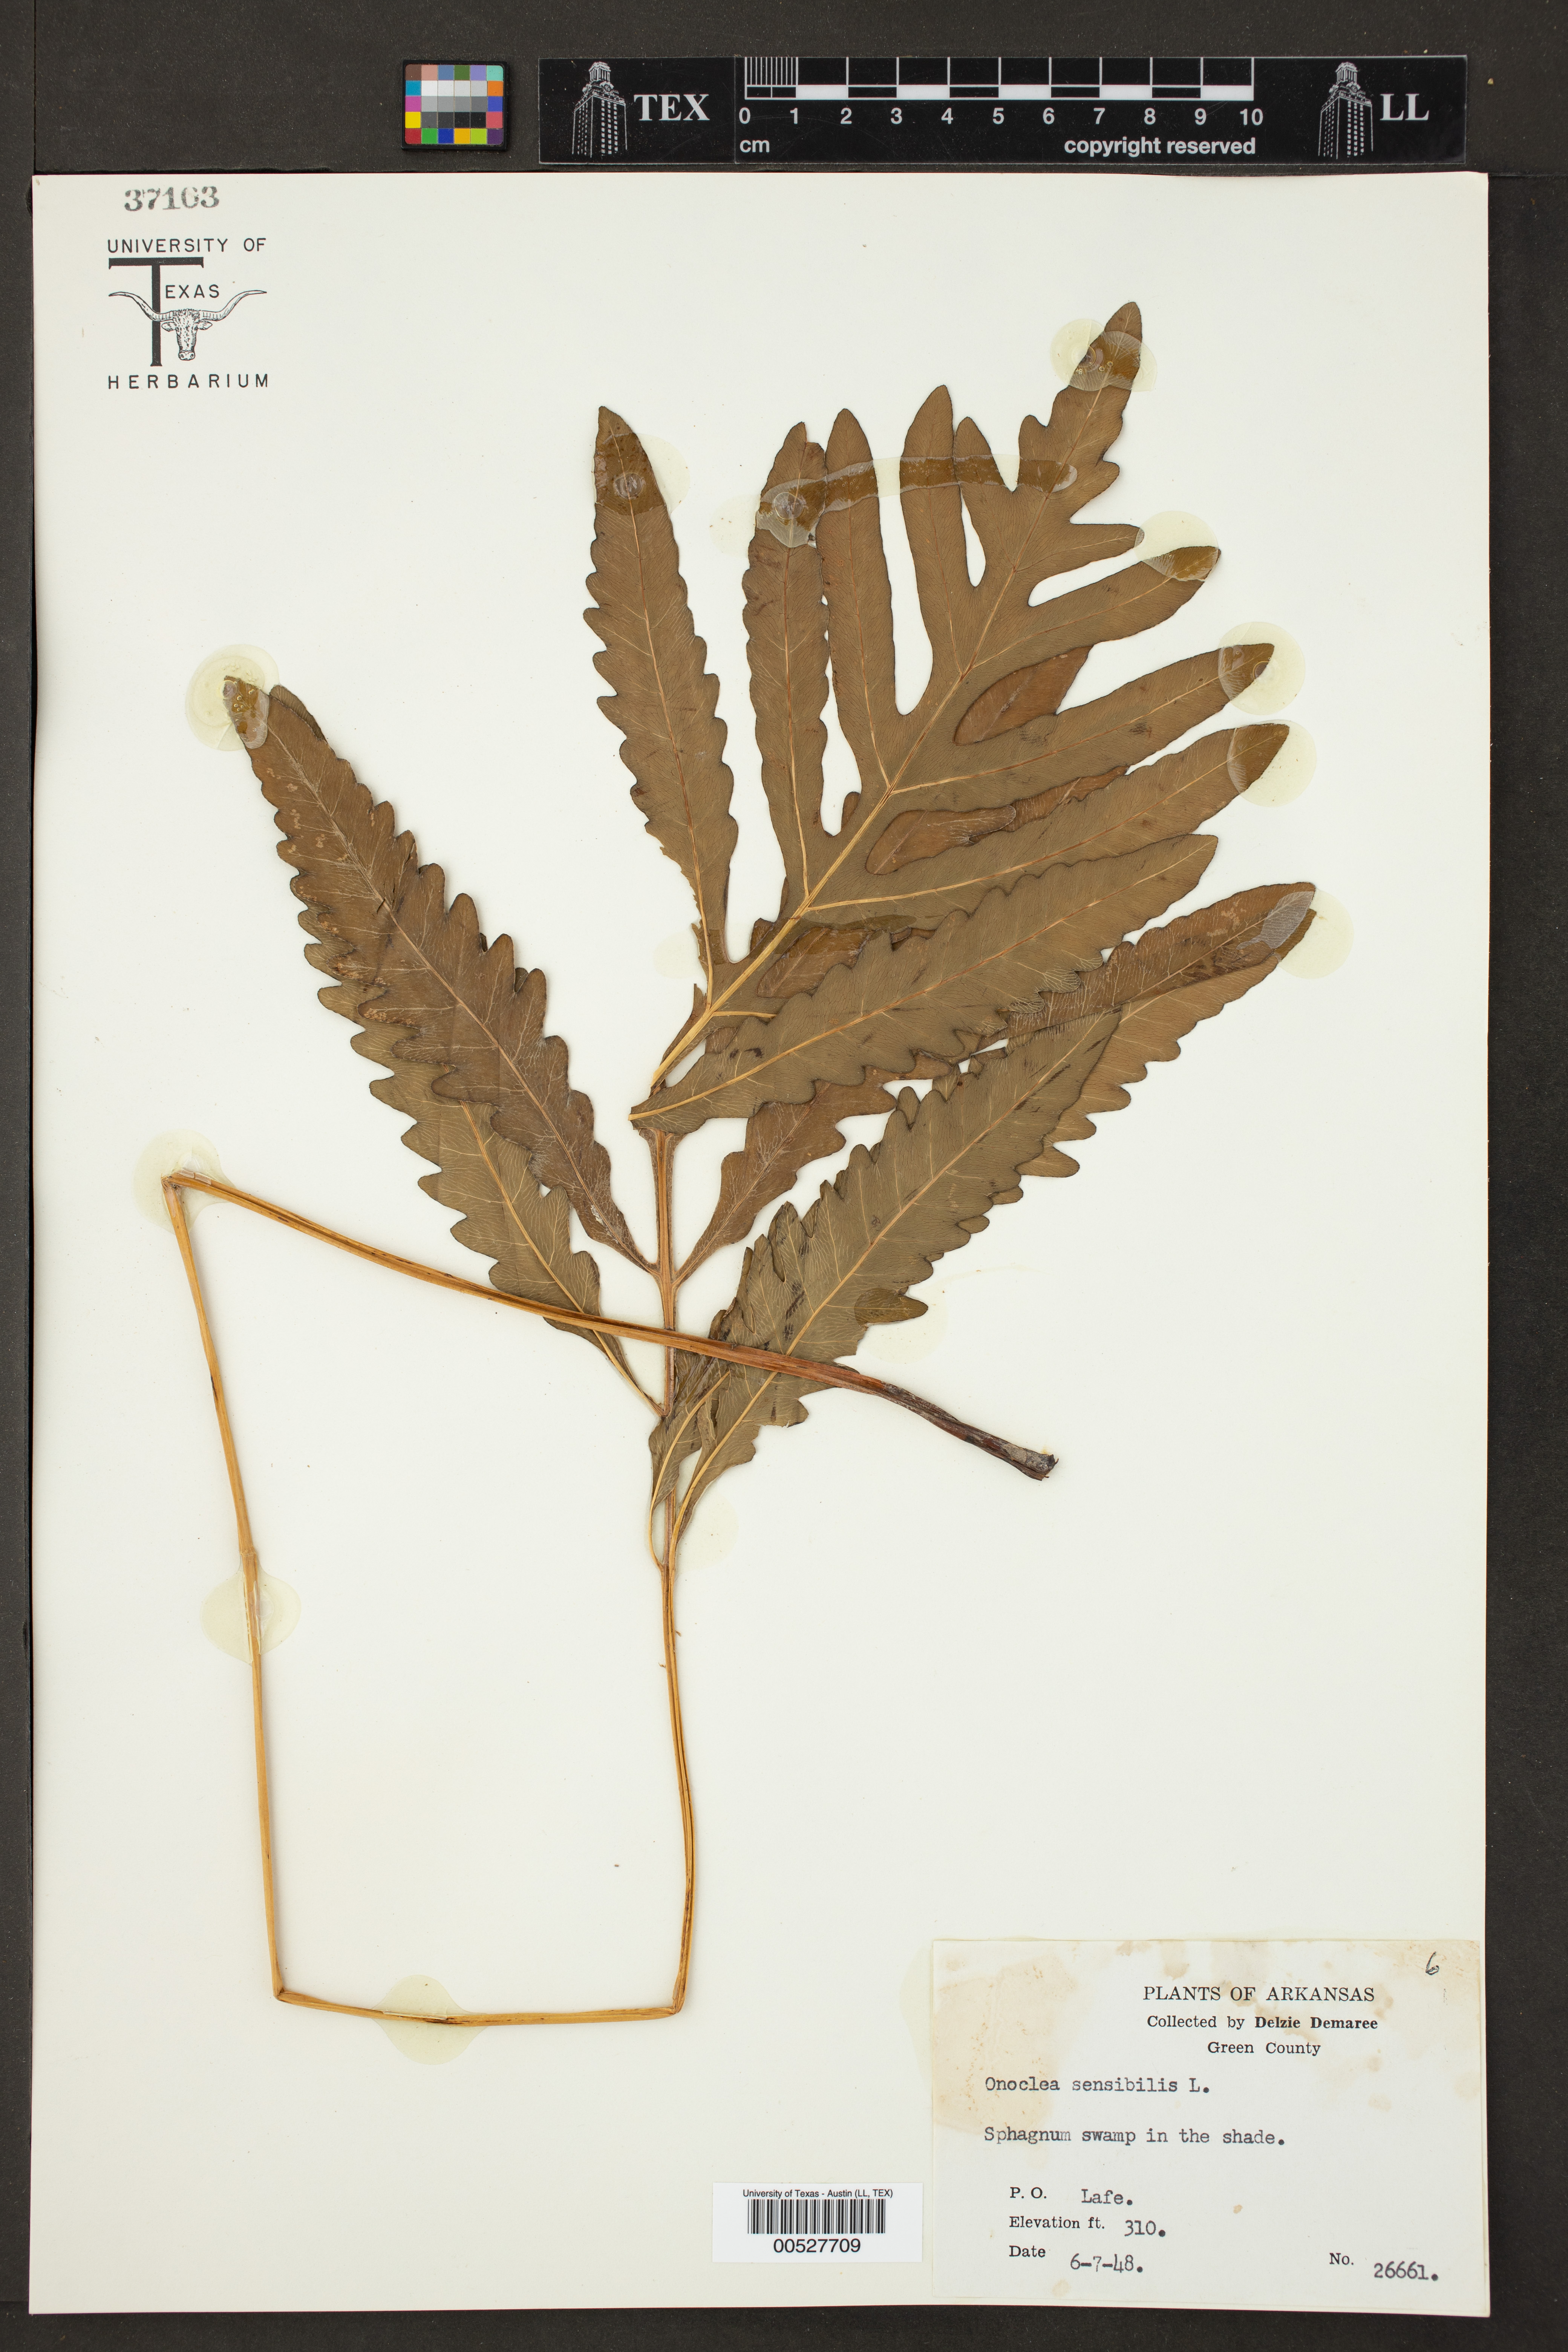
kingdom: Plantae
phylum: Tracheophyta
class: Polypodiopsida
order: Polypodiales
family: Onocleaceae
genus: Onoclea
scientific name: Onoclea sensibilis
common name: Sensitive fern
